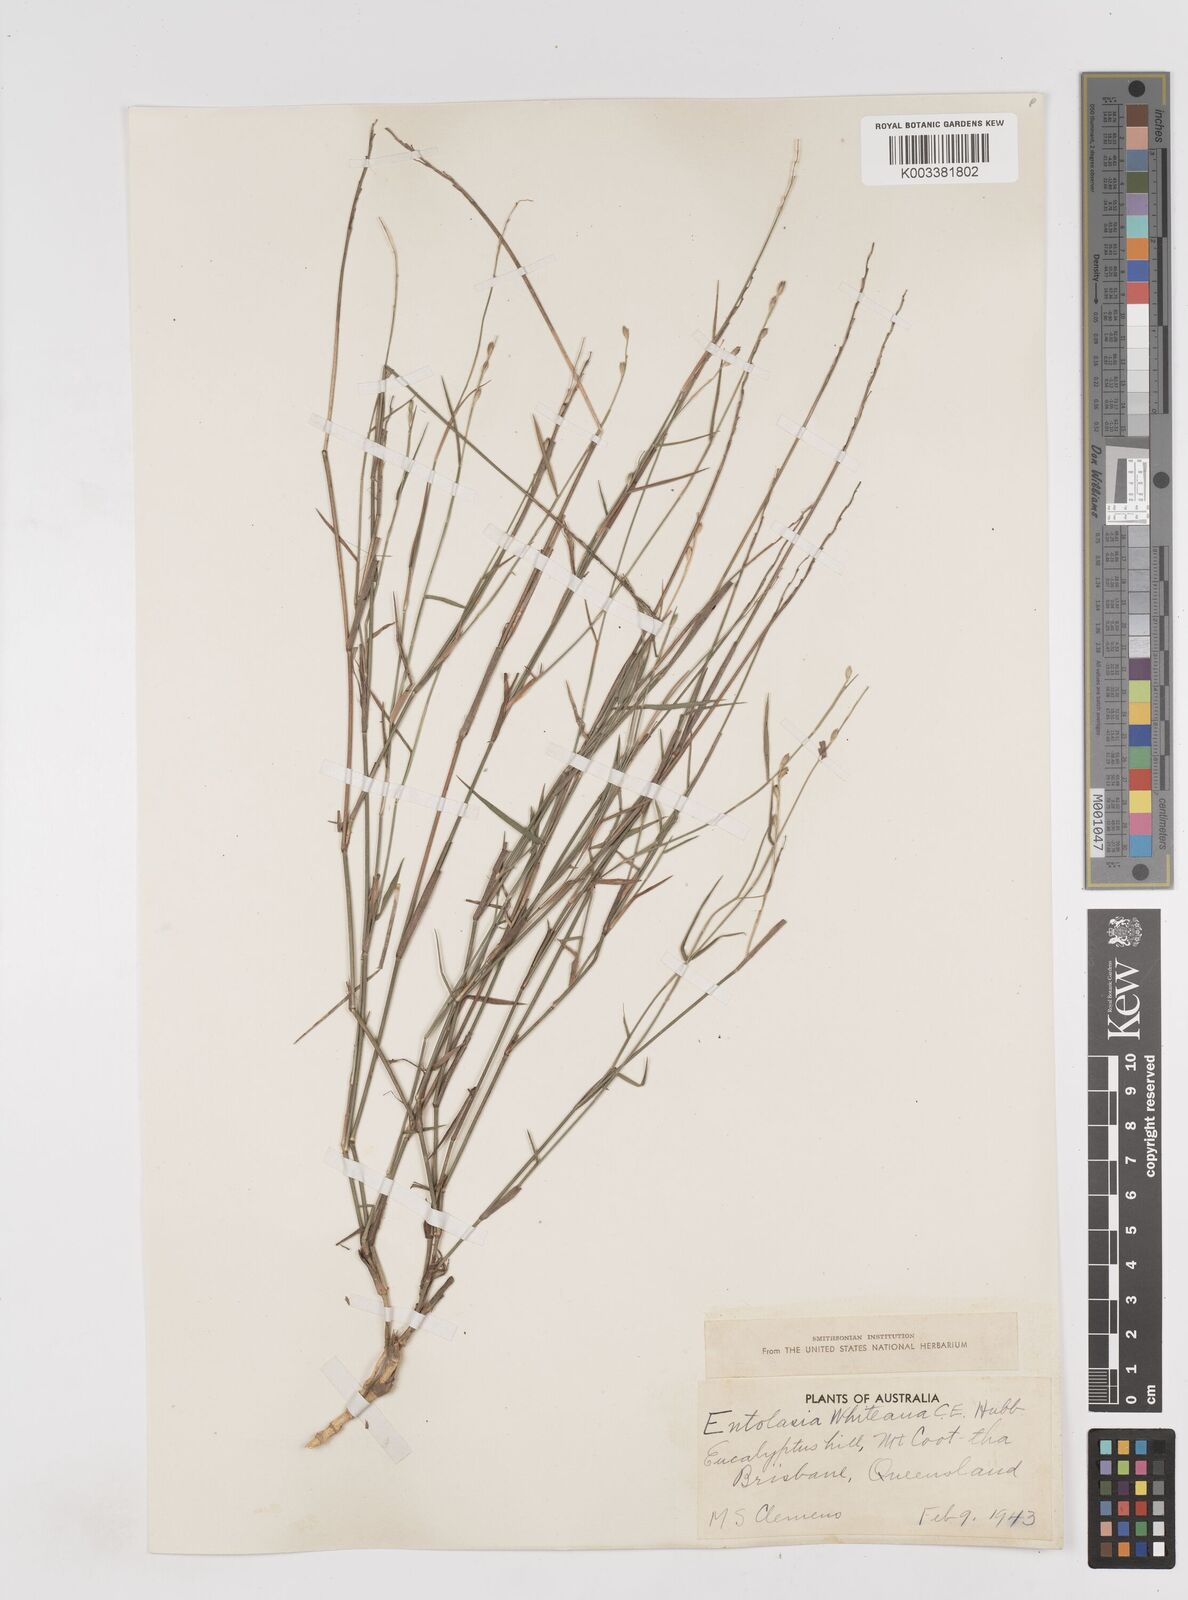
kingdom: Plantae
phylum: Tracheophyta
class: Liliopsida
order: Poales
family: Poaceae
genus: Entolasia
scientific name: Entolasia whiteana
